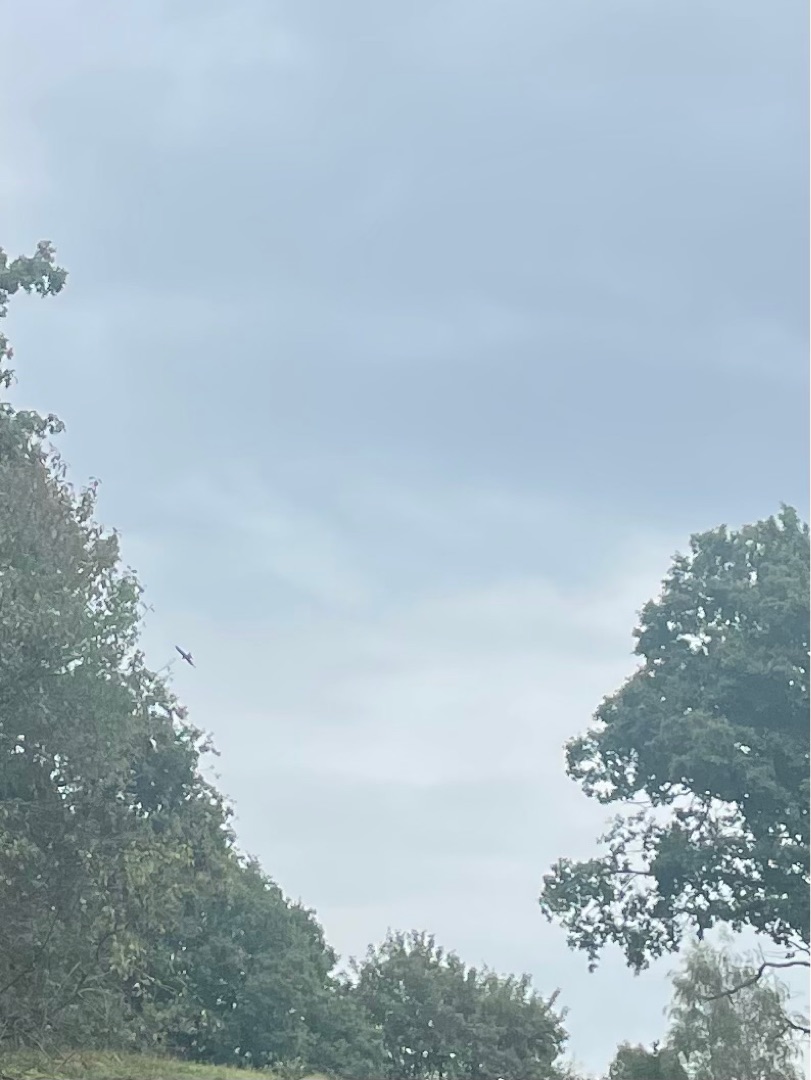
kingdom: Animalia
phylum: Chordata
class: Aves
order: Accipitriformes
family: Accipitridae
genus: Milvus
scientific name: Milvus milvus
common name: Rød glente
